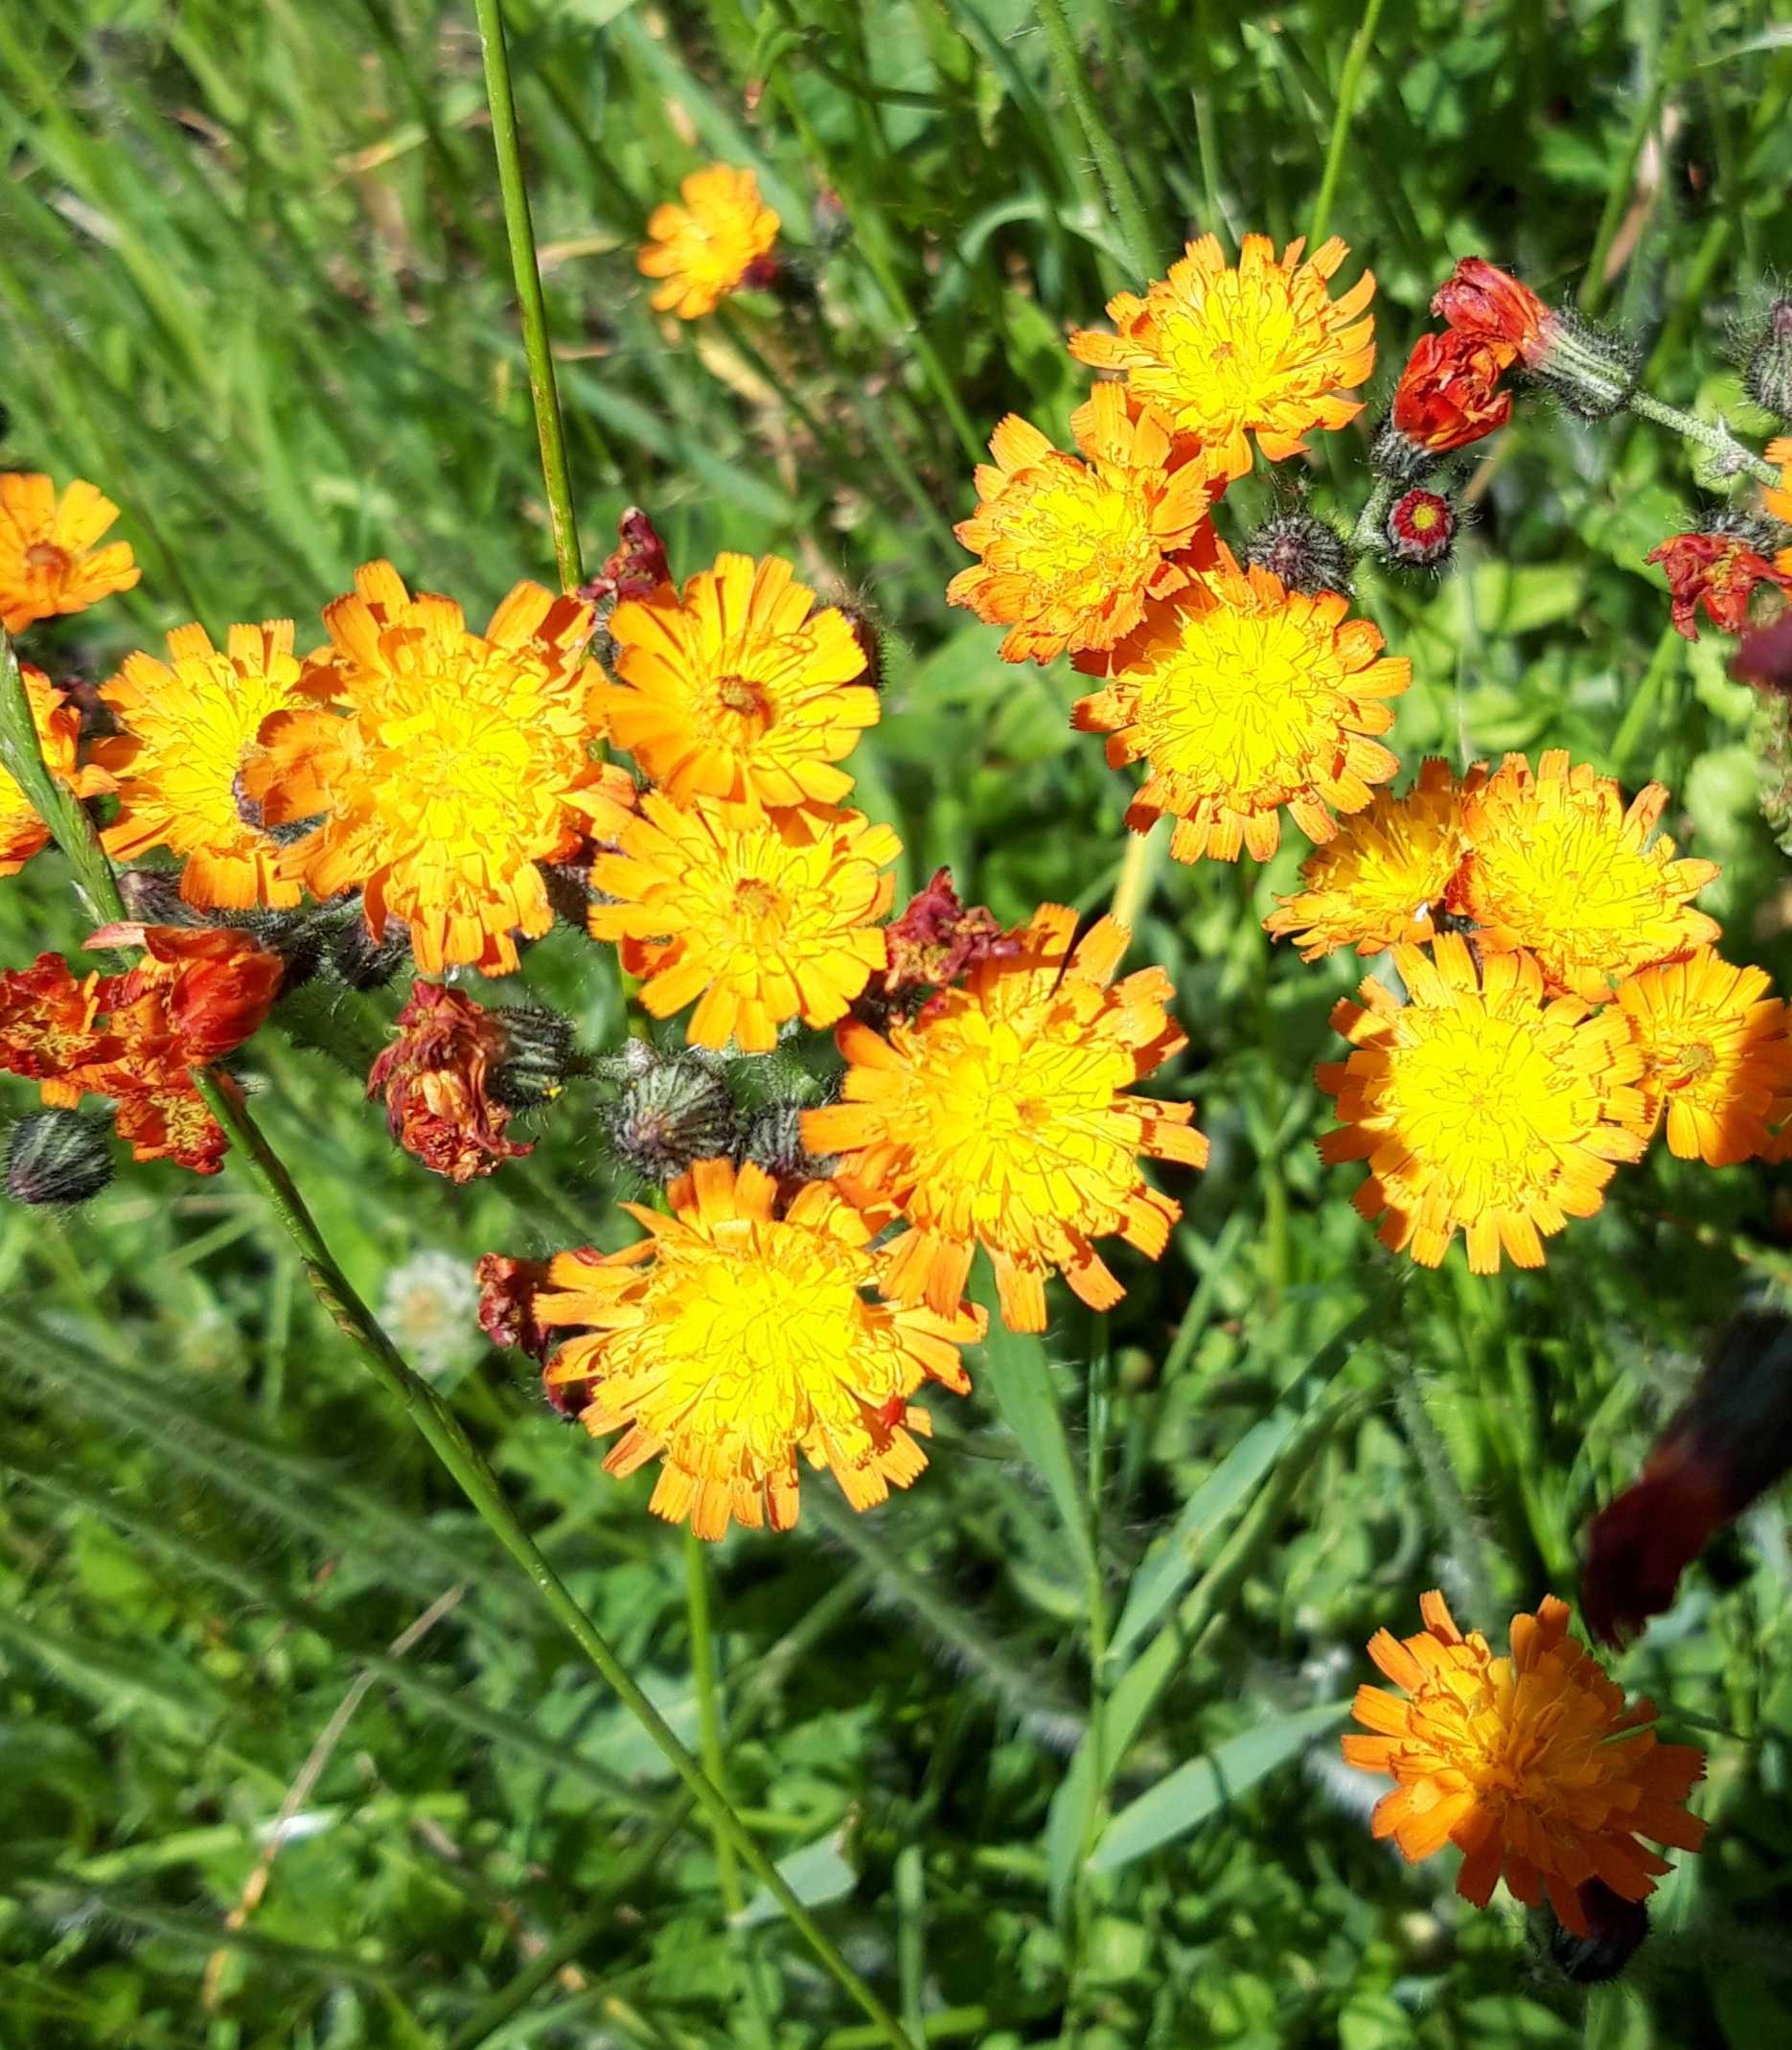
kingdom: Plantae
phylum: Tracheophyta
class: Magnoliopsida
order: Asterales
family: Asteraceae
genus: Pilosella
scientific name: Pilosella
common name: Pomerans-høgeurt × håret høgeurt
